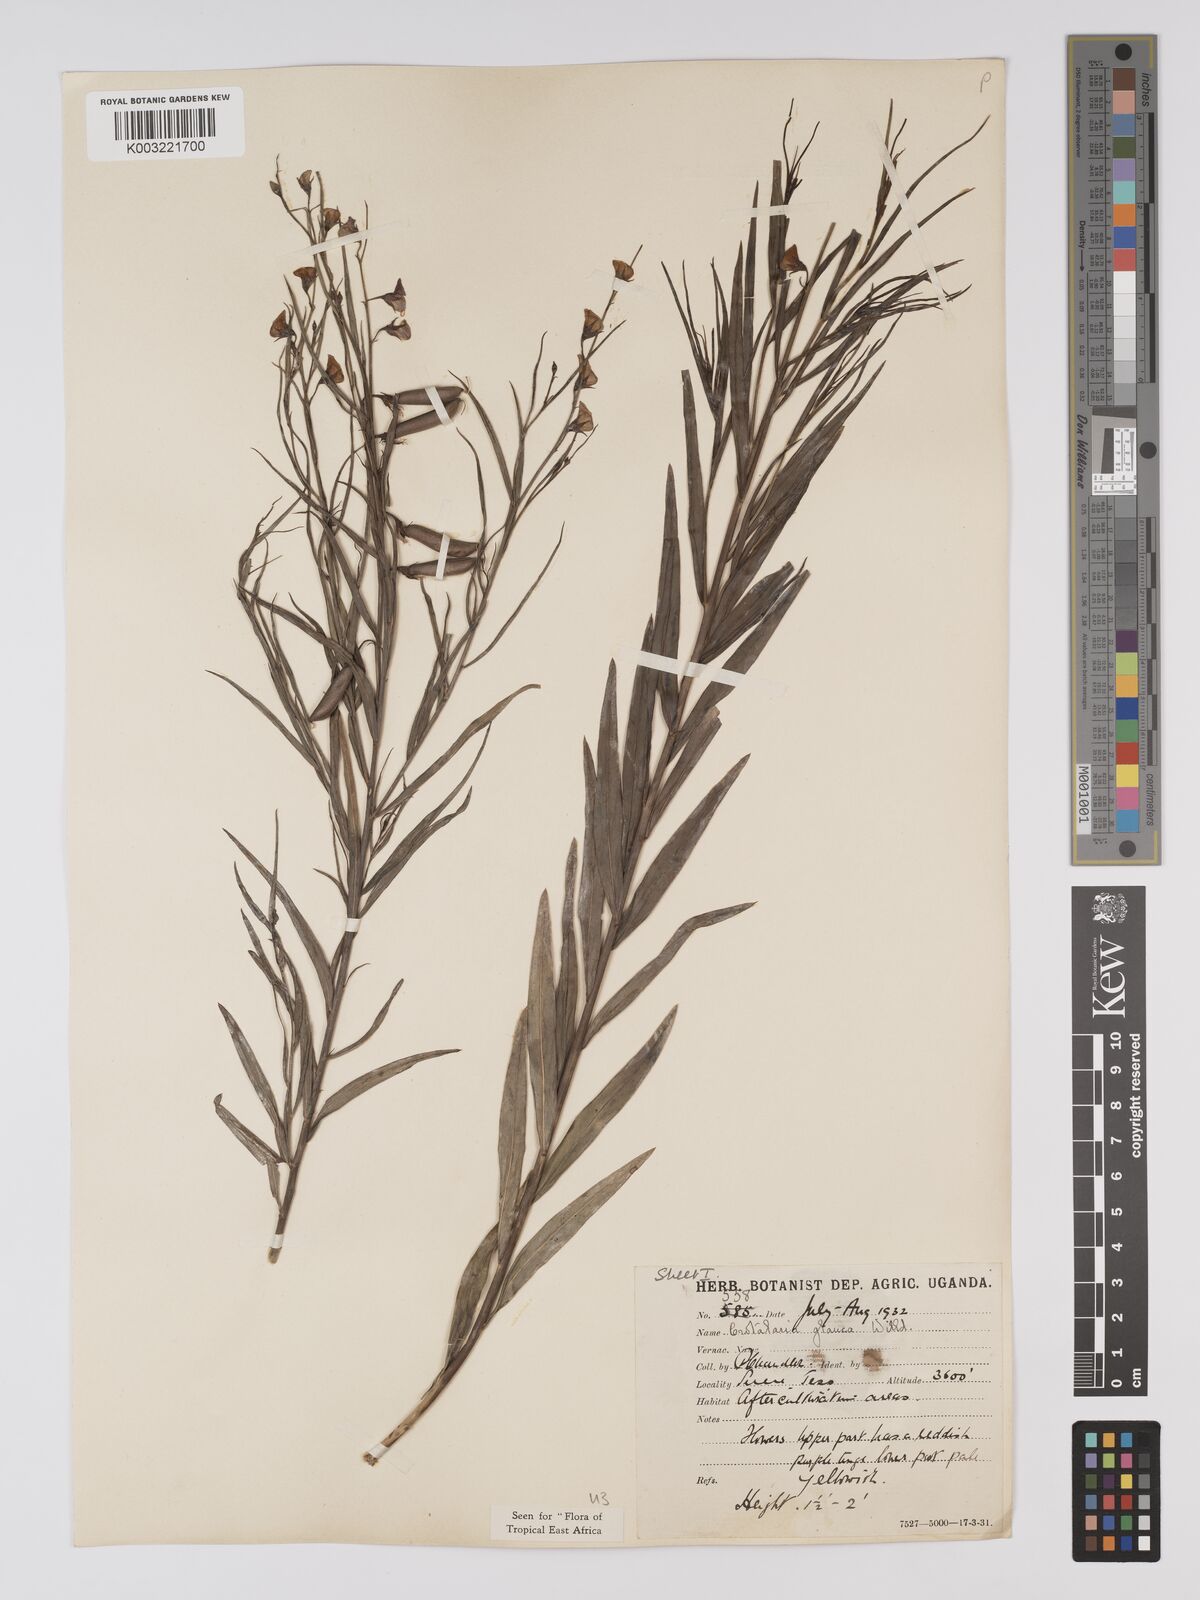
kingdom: Plantae
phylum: Tracheophyta
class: Magnoliopsida
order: Fabales
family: Fabaceae
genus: Crotalaria
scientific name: Crotalaria glauca
